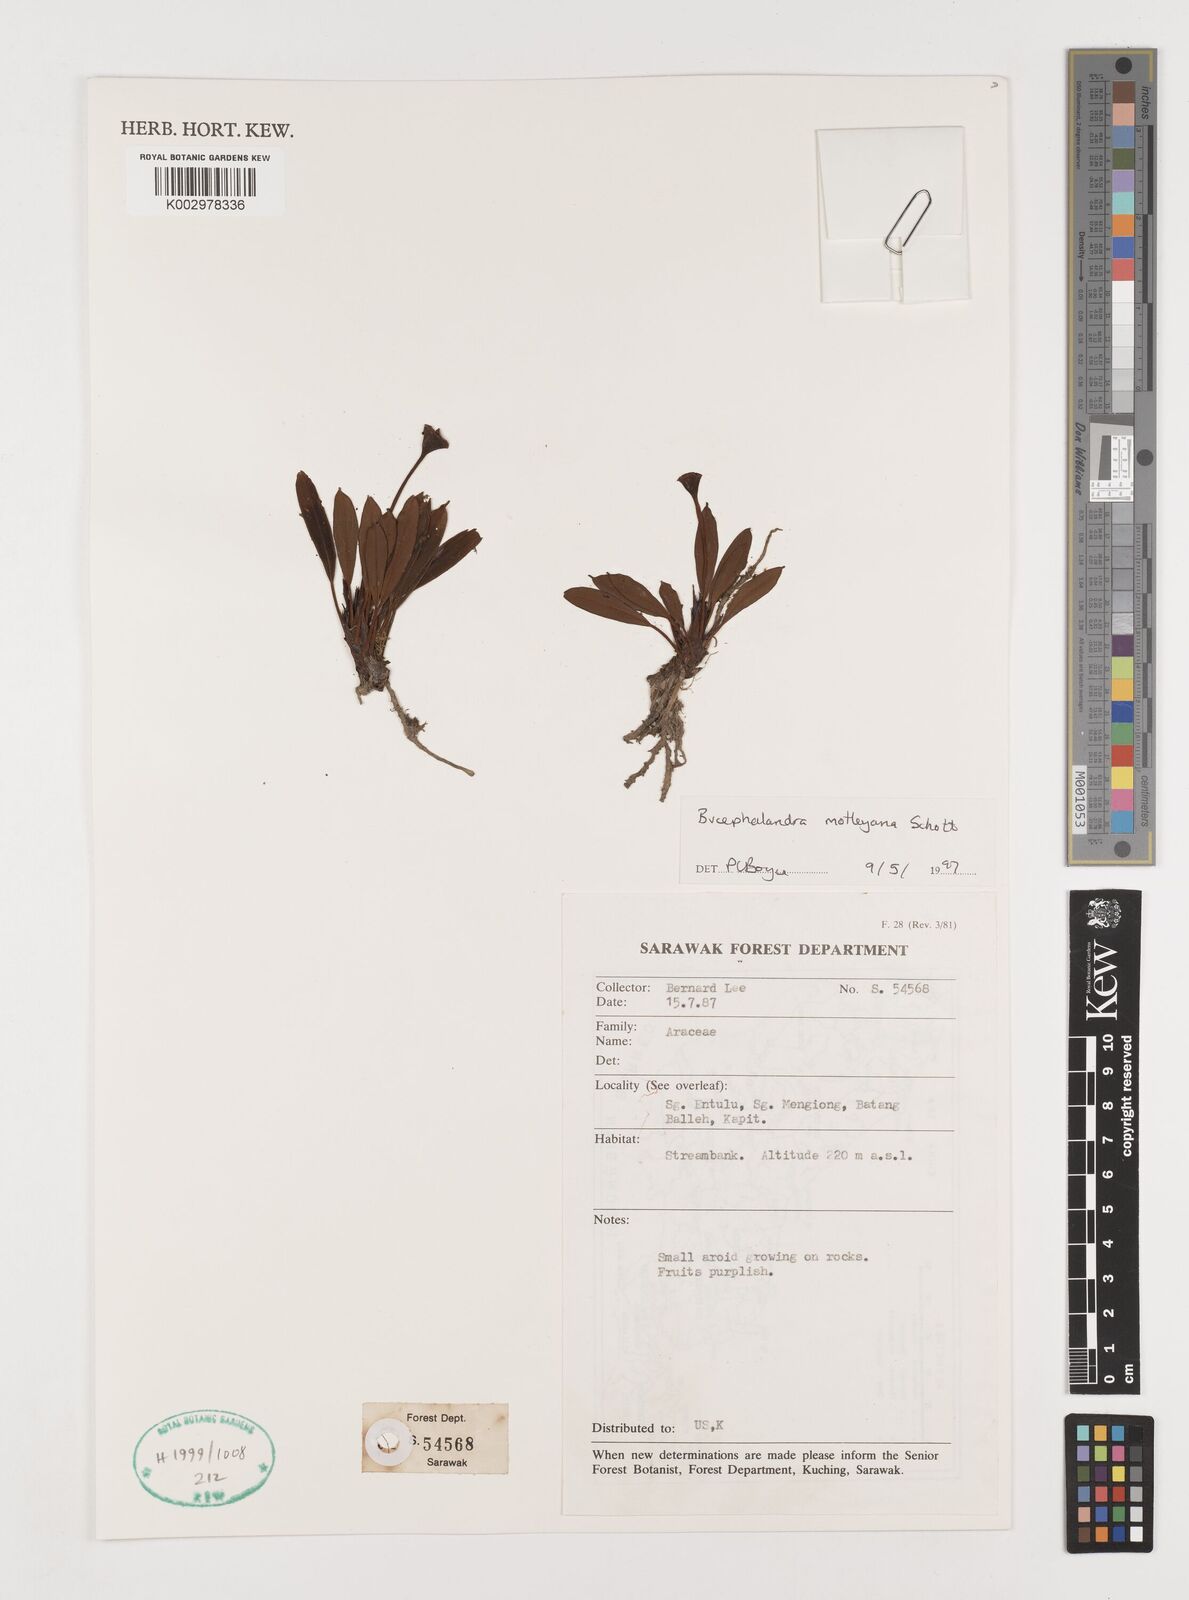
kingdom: Plantae
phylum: Tracheophyta
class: Liliopsida
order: Alismatales
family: Araceae
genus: Bucephalandra
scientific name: Bucephalandra motleyana
